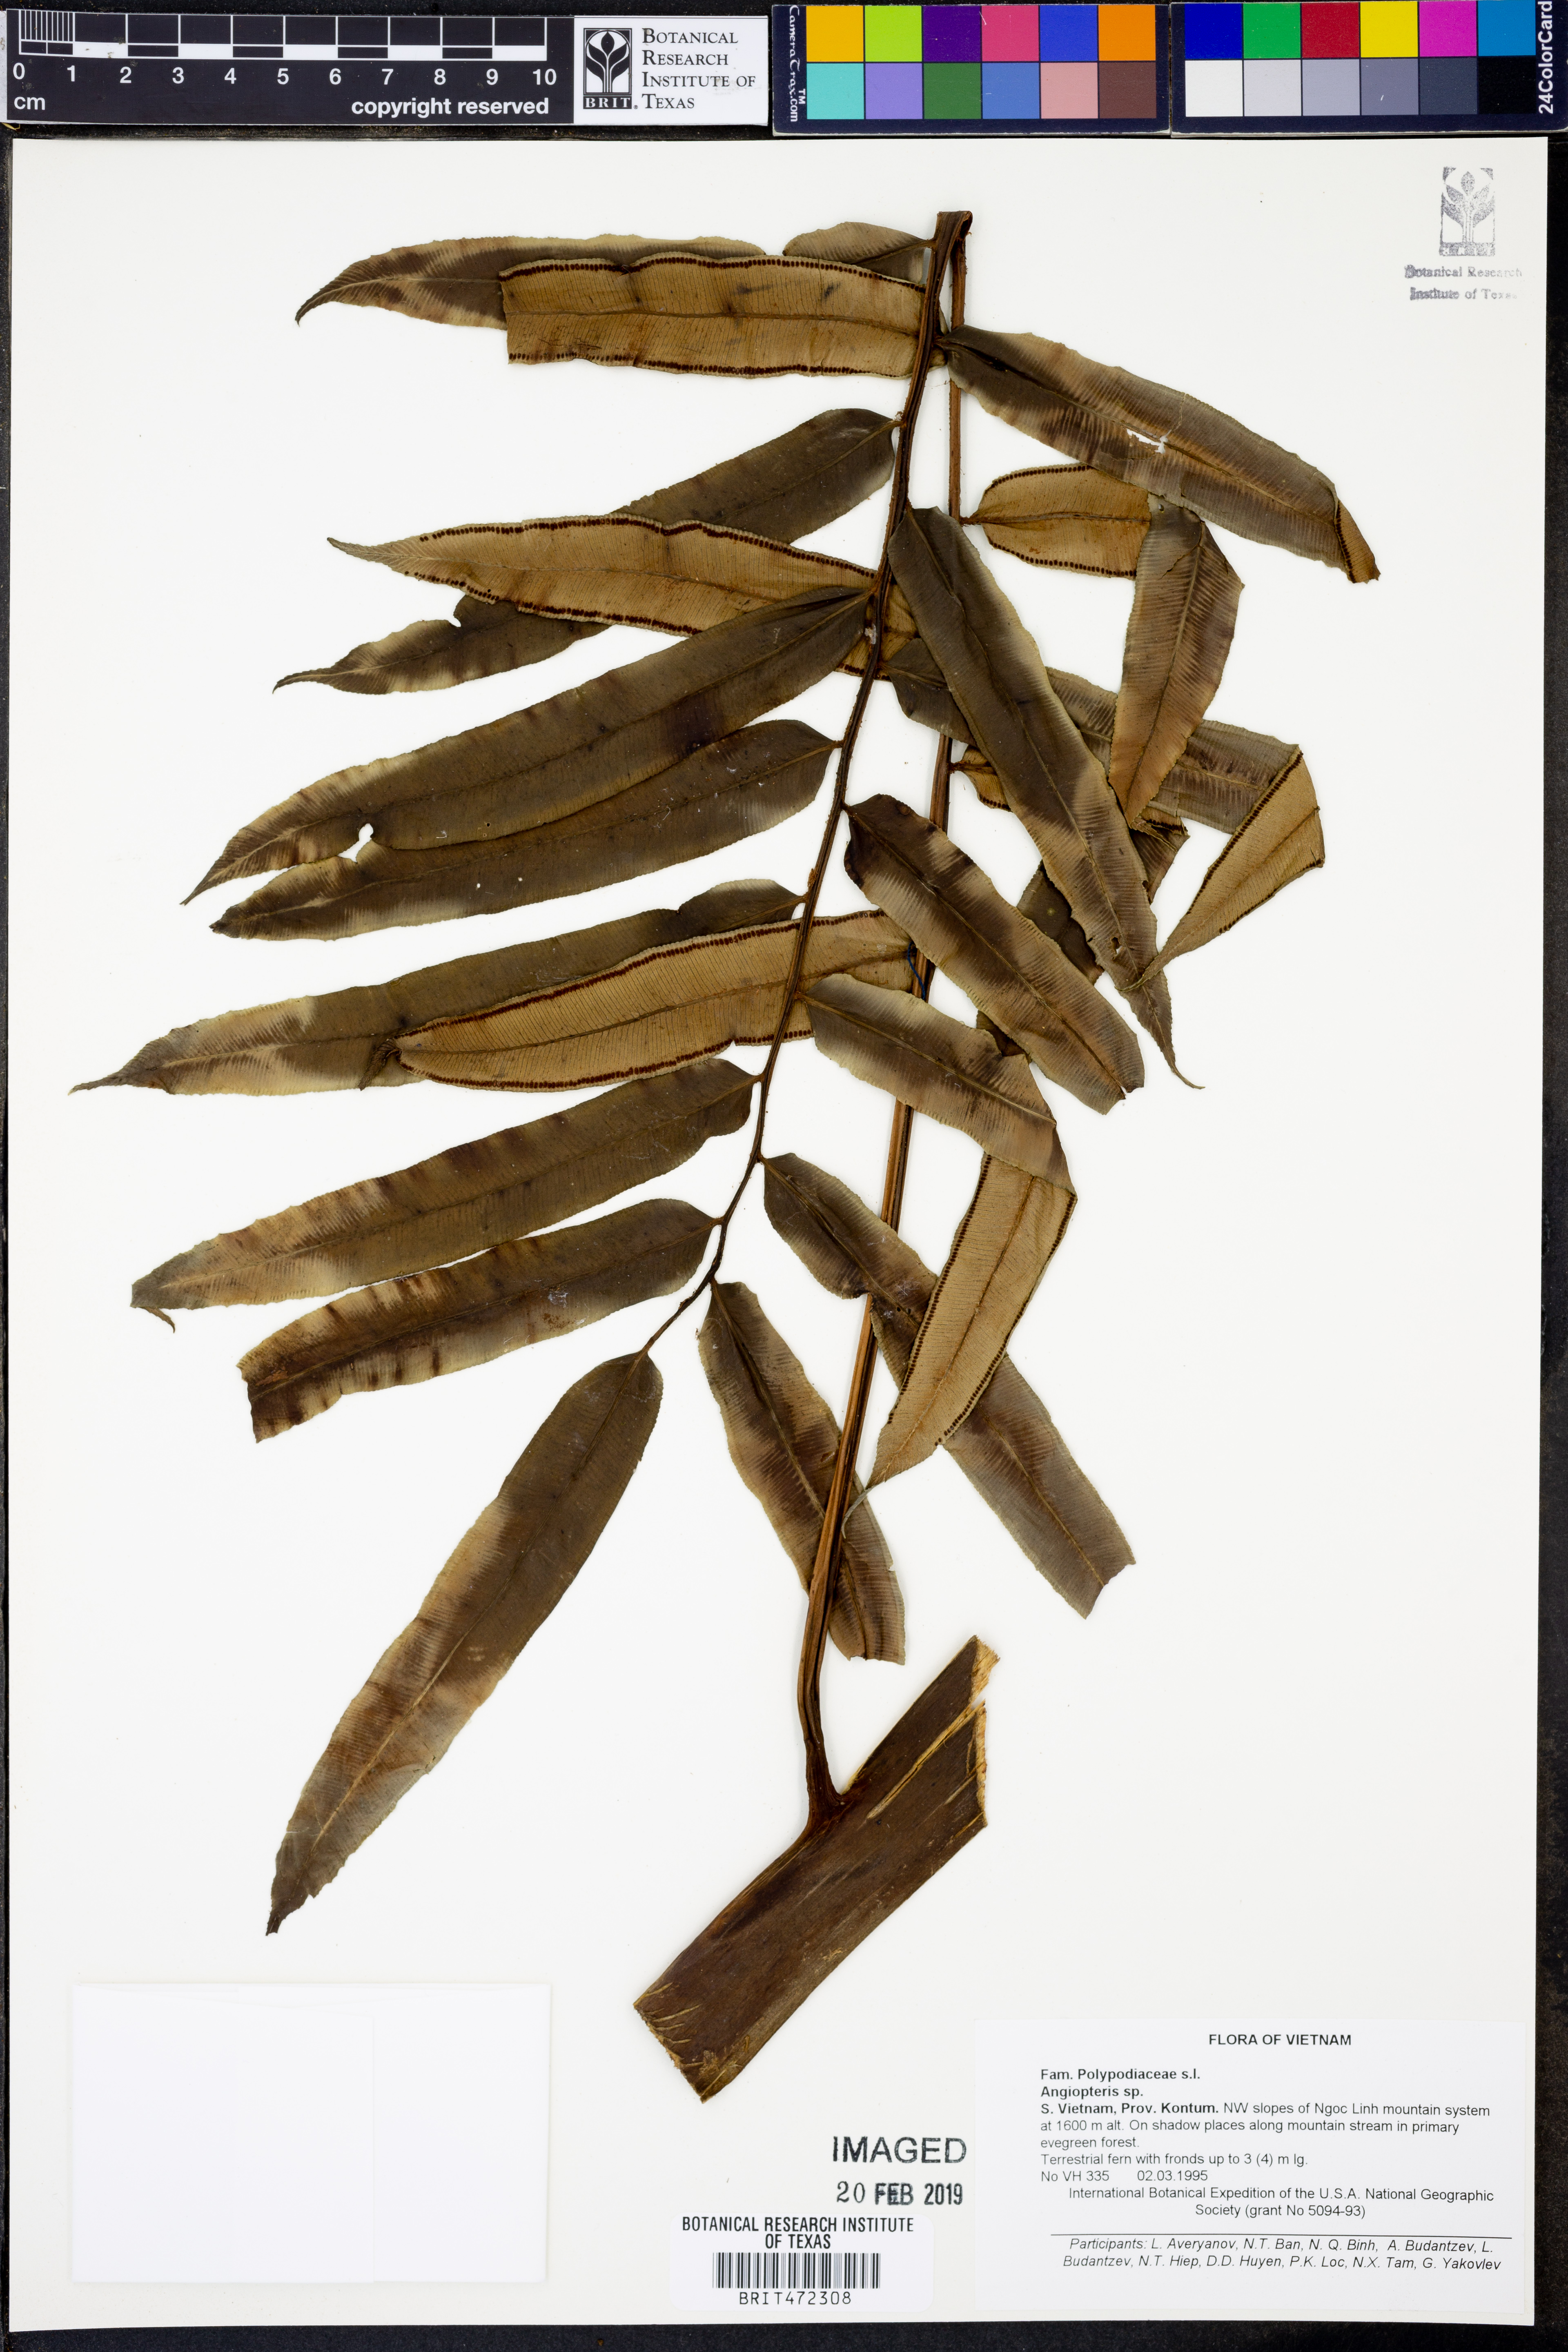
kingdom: Plantae
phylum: Tracheophyta
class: Polypodiopsida
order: Marattiales
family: Marattiaceae
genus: Angiopteris
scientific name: Angiopteris
